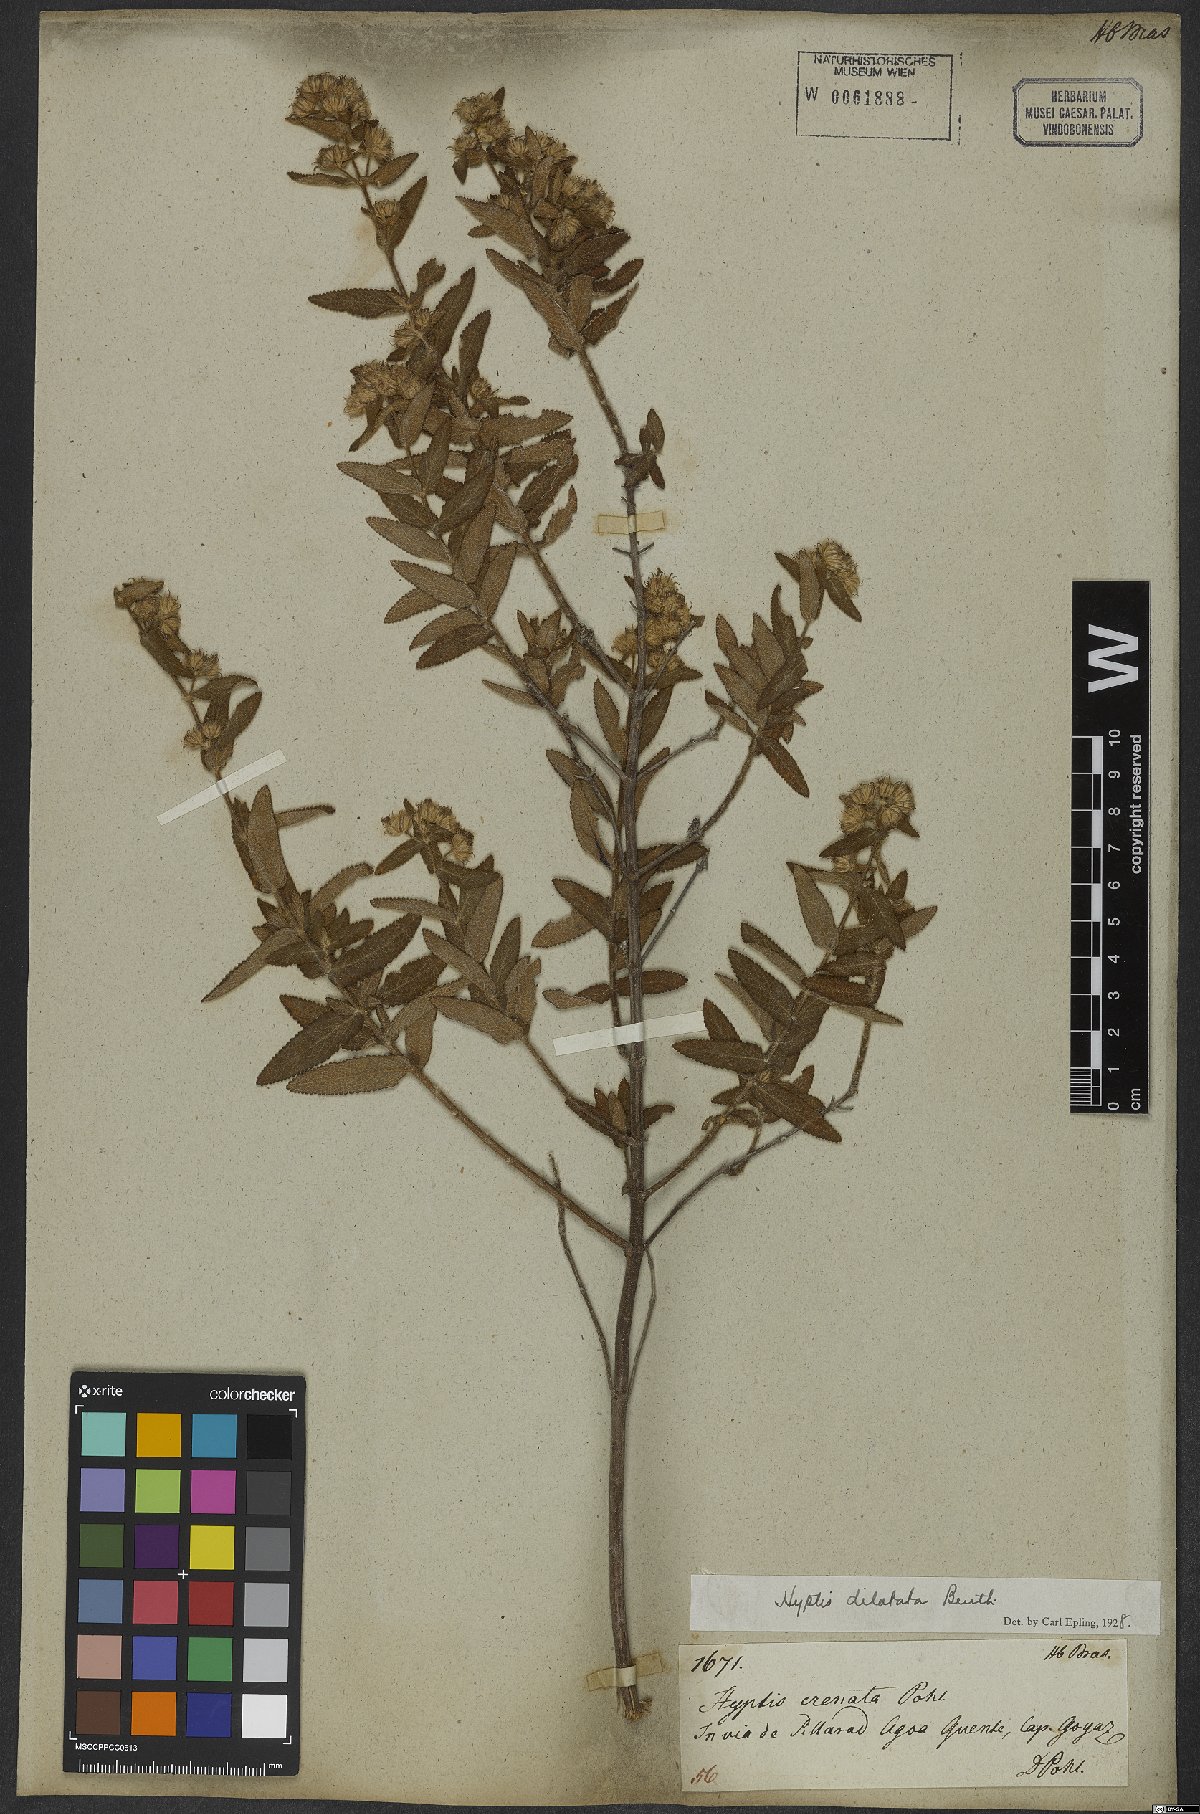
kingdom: Plantae
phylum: Tracheophyta
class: Magnoliopsida
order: Lamiales
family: Lamiaceae
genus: Hyptis
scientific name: Hyptis crenata
